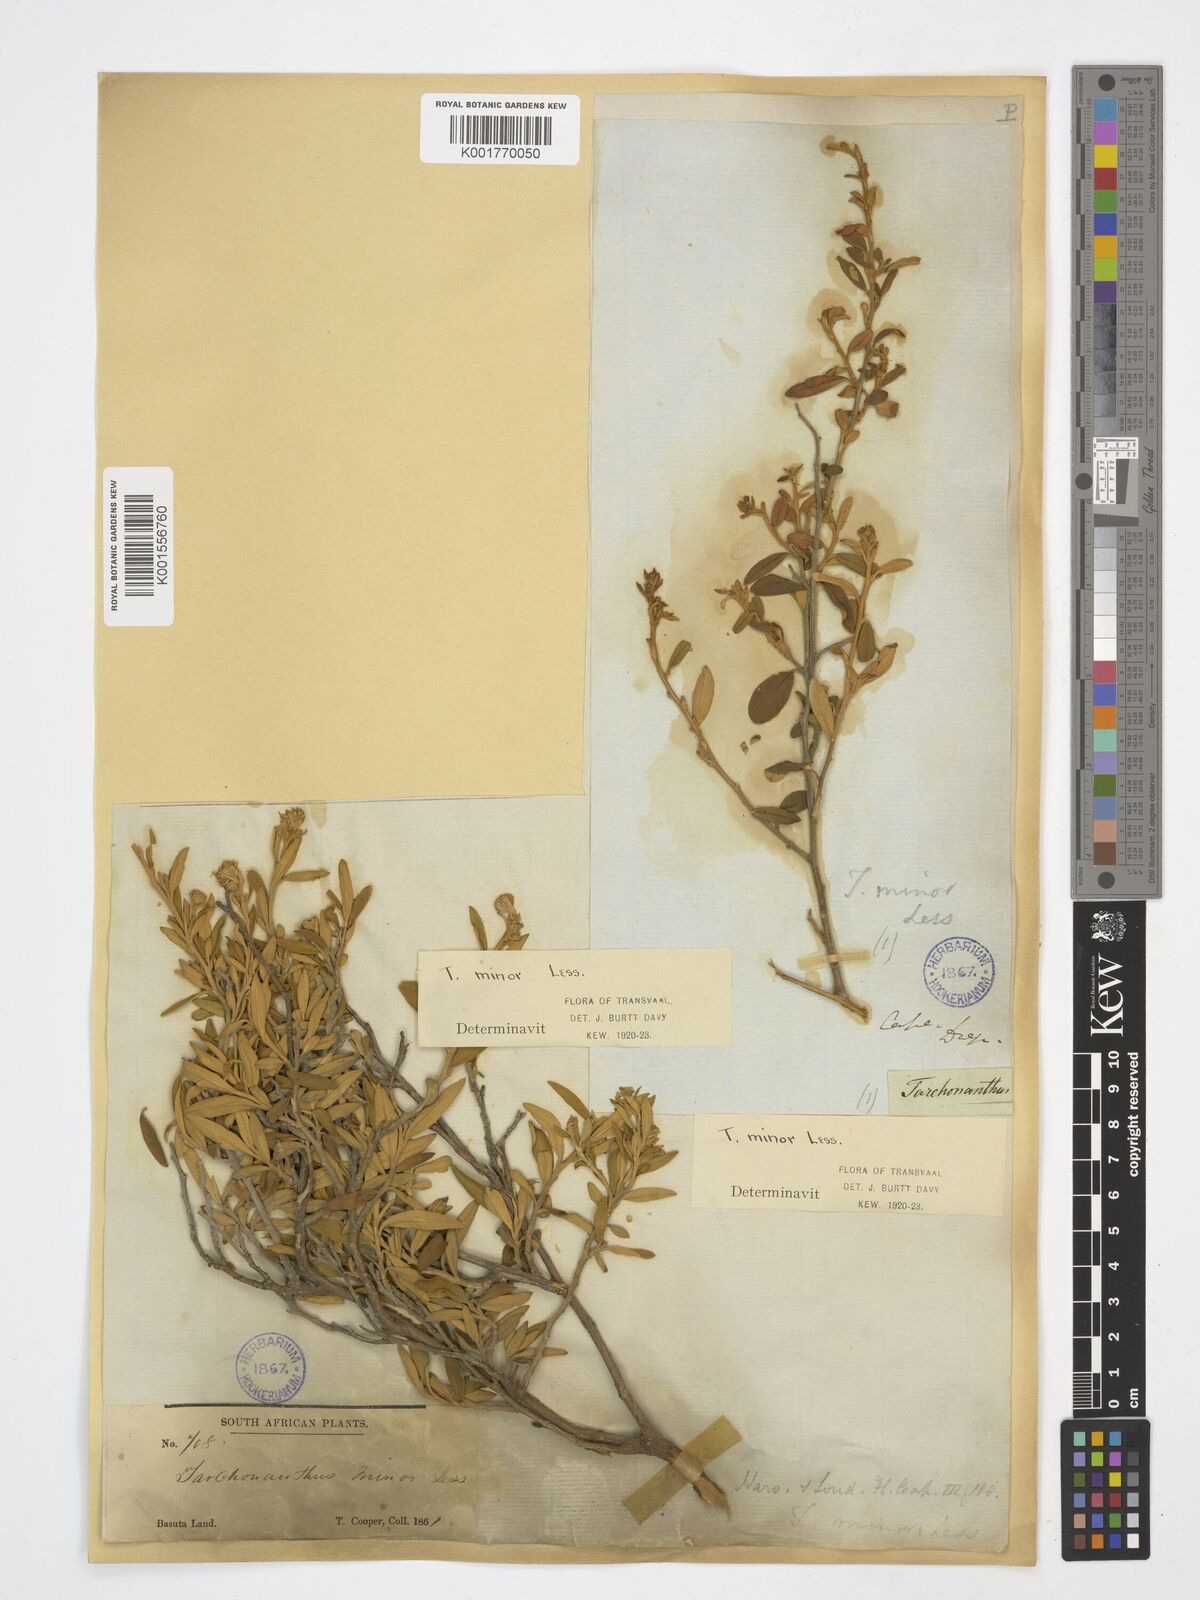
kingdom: Plantae
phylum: Tracheophyta
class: Magnoliopsida
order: Asterales
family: Asteraceae
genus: Tarchonanthus
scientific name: Tarchonanthus camphoratus
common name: Camphorwood
